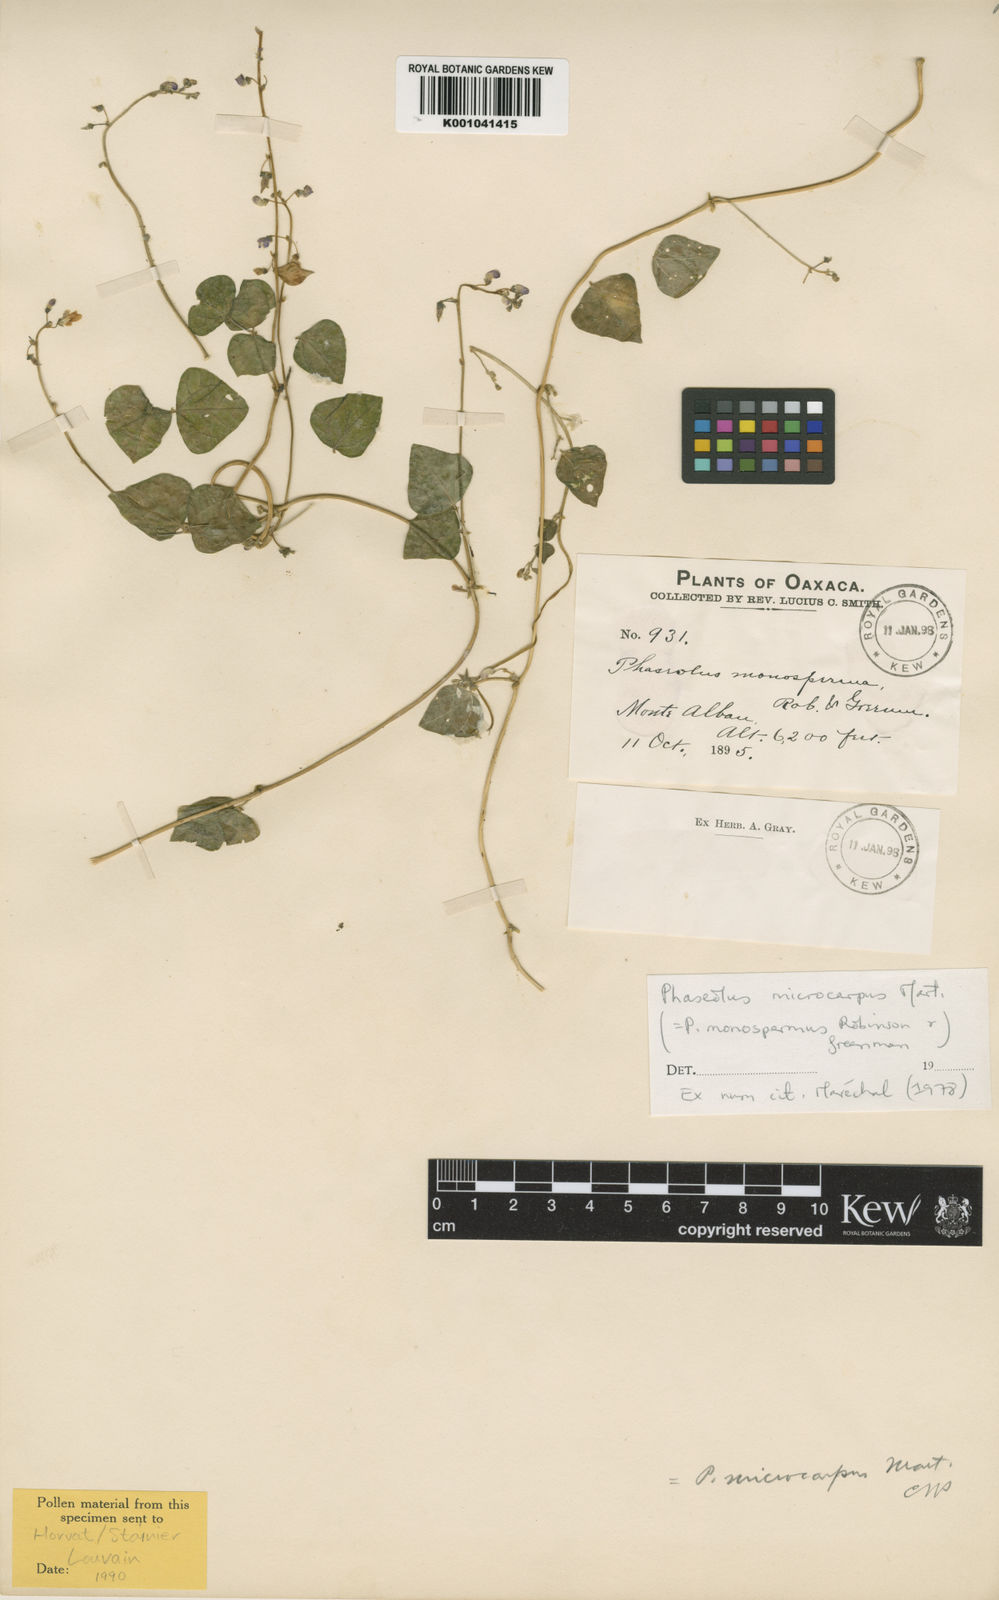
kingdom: Plantae
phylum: Tracheophyta
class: Magnoliopsida
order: Fabales
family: Fabaceae
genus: Phaseolus
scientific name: Phaseolus microcarpus
